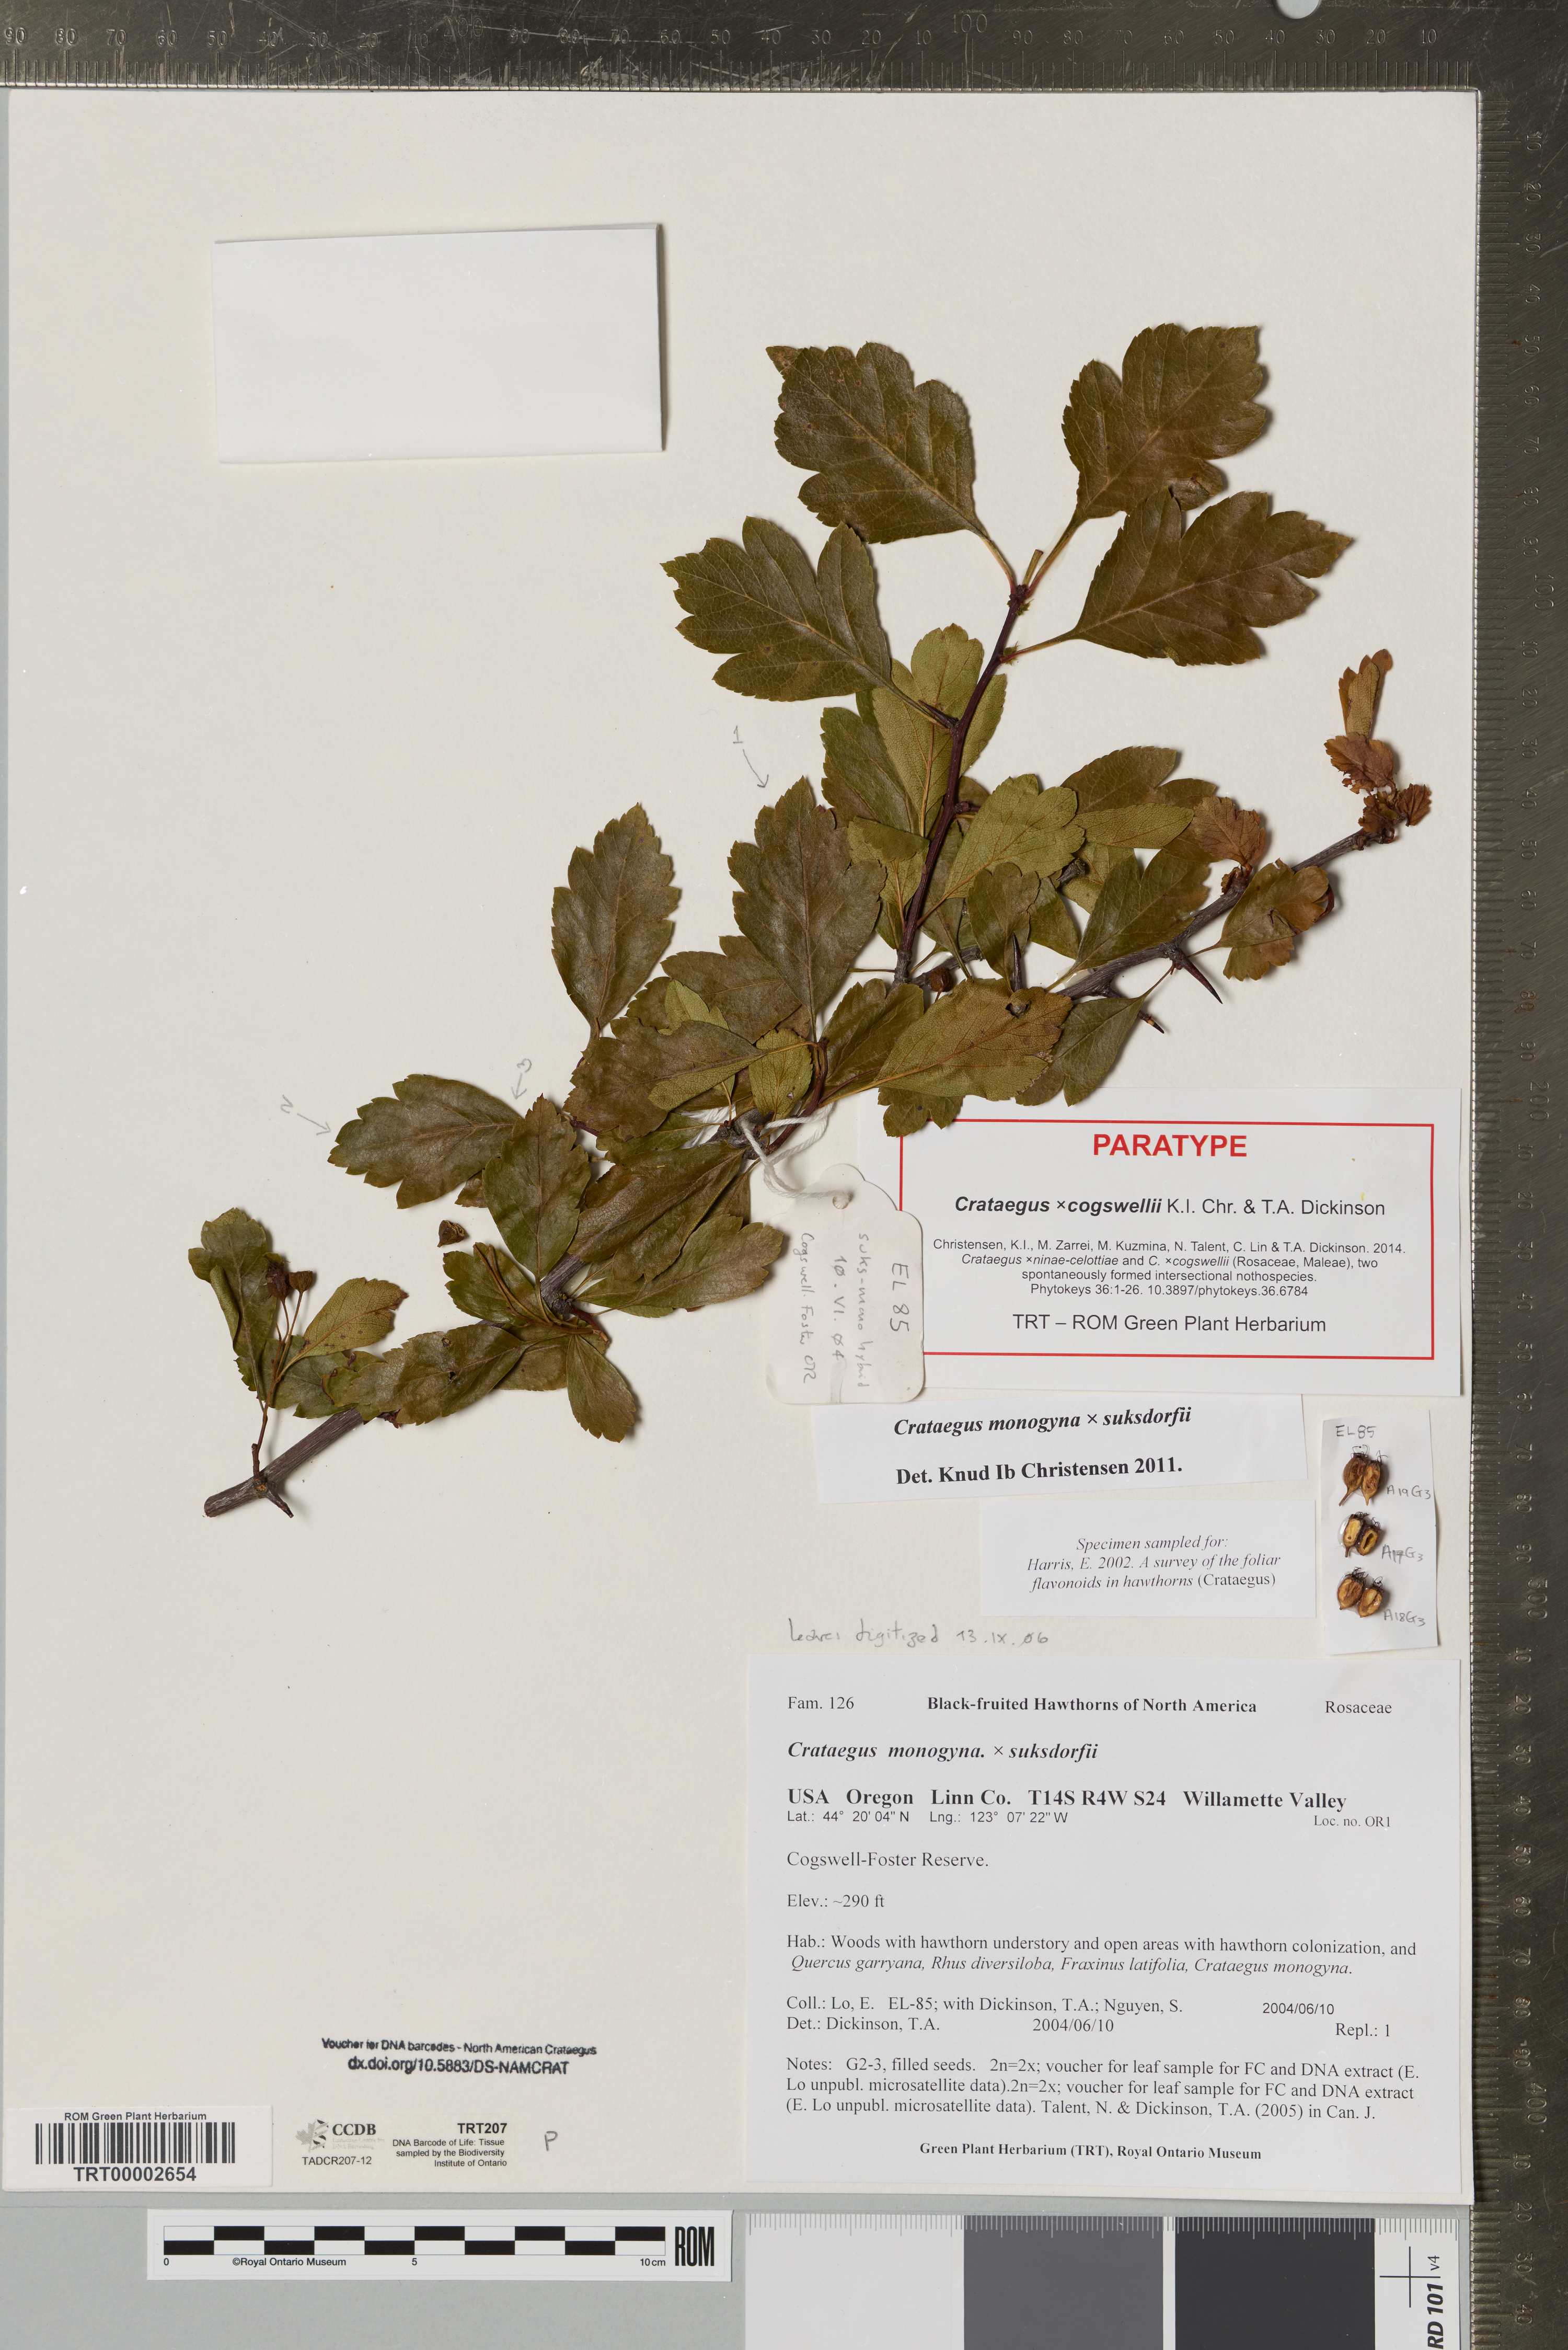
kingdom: Plantae
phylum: Tracheophyta
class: Magnoliopsida
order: Rosales
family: Rosaceae
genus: Crataegus
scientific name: Crataegus
